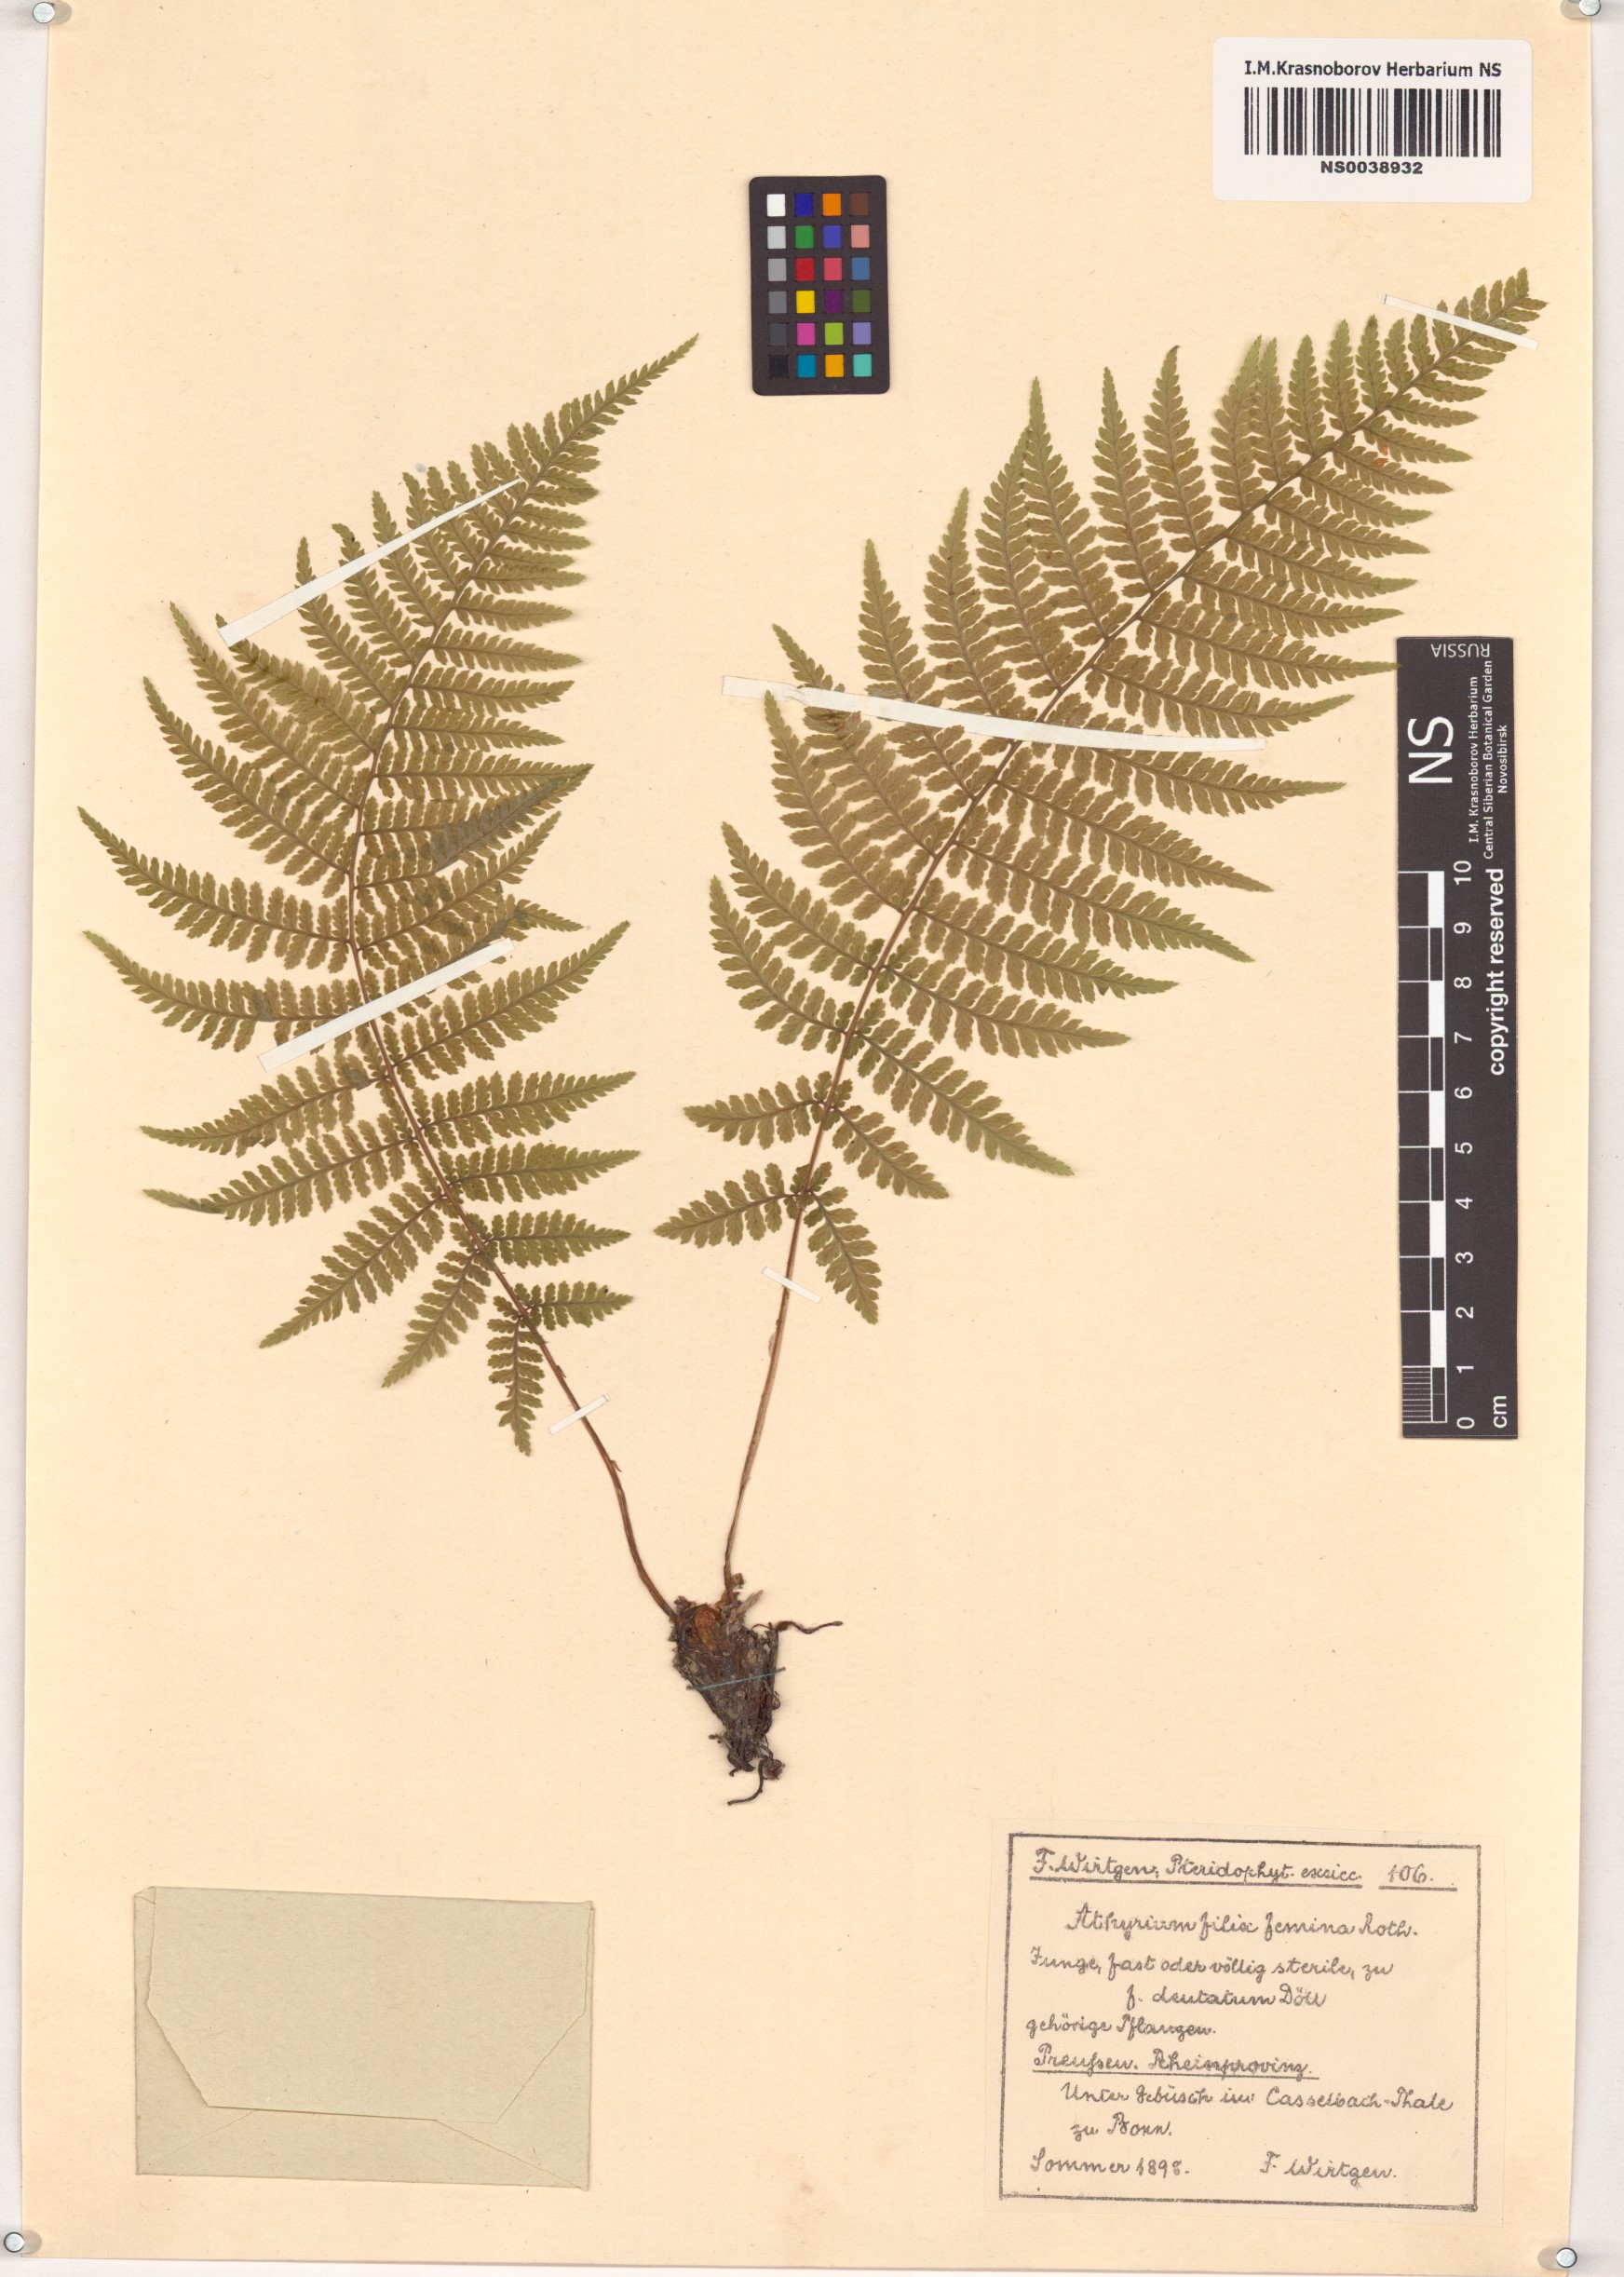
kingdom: Plantae
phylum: Tracheophyta
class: Polypodiopsida
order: Polypodiales
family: Athyriaceae
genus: Athyrium
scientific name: Athyrium filix-femina
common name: Lady fern
